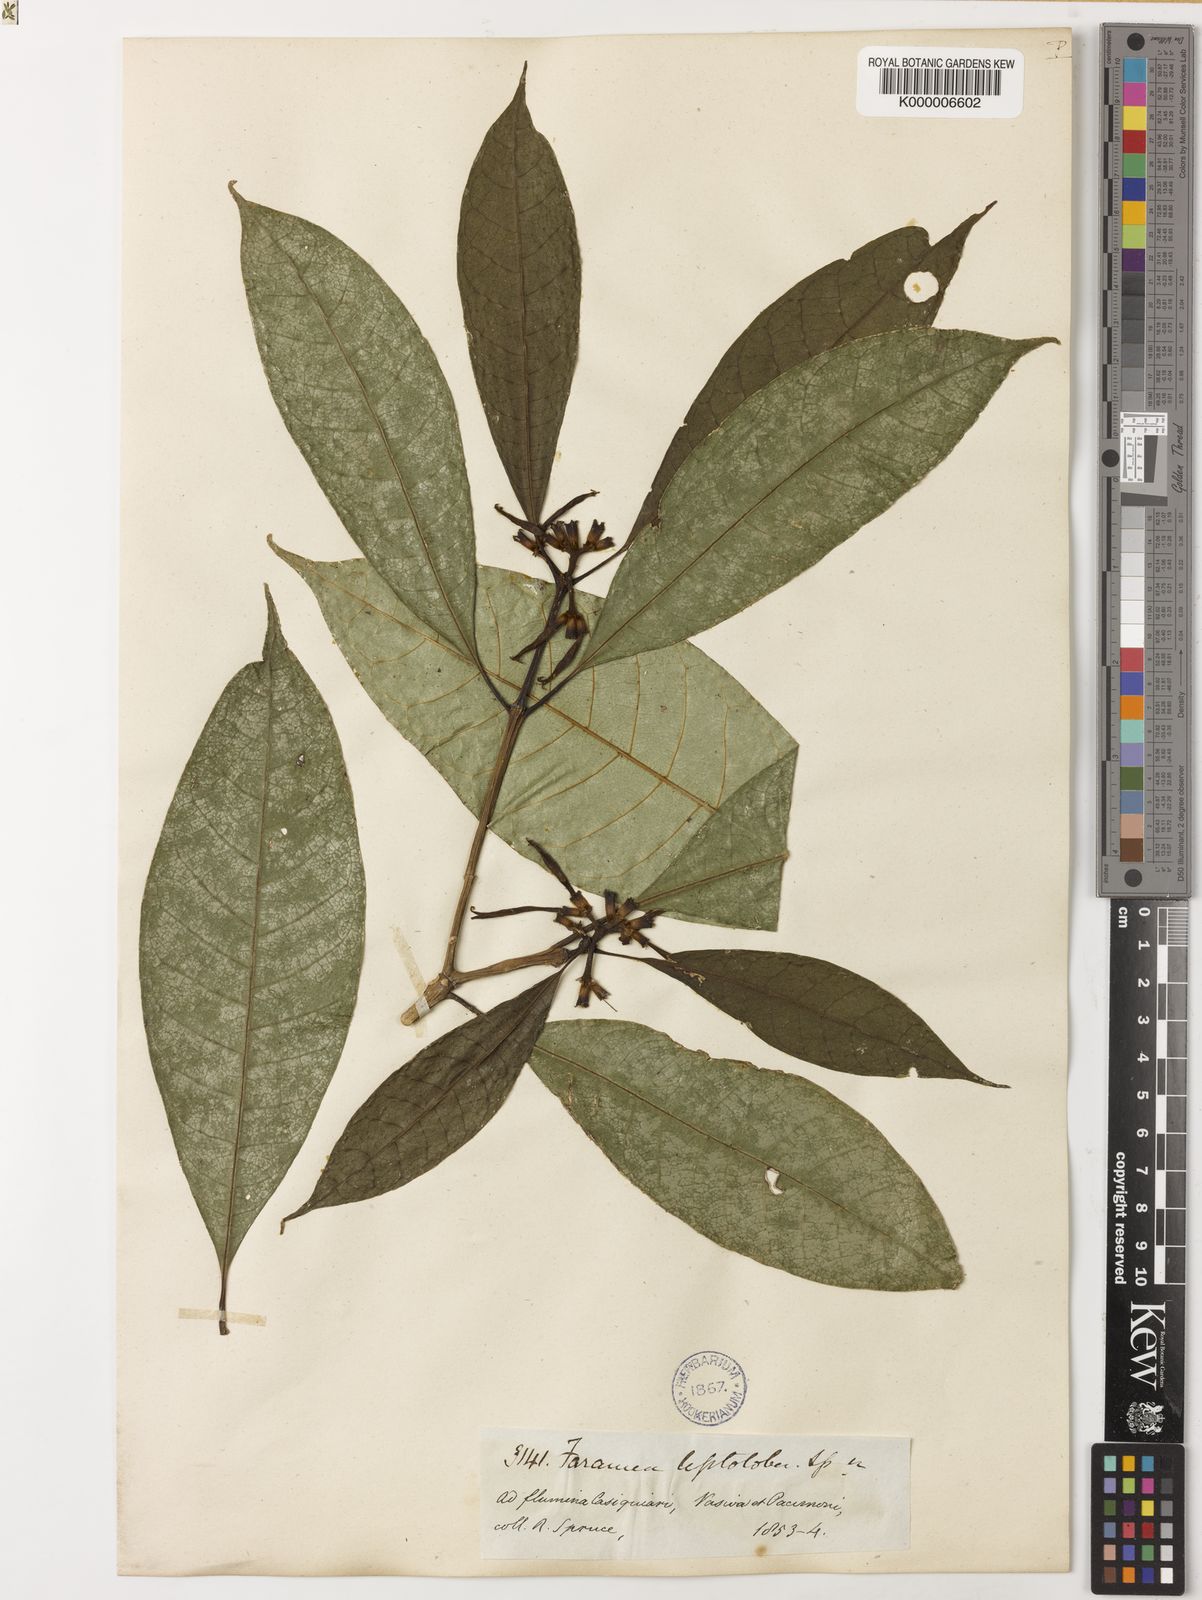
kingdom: Plantae
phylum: Tracheophyta
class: Magnoliopsida
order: Gentianales
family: Rubiaceae
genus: Coussarea
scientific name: Coussarea
